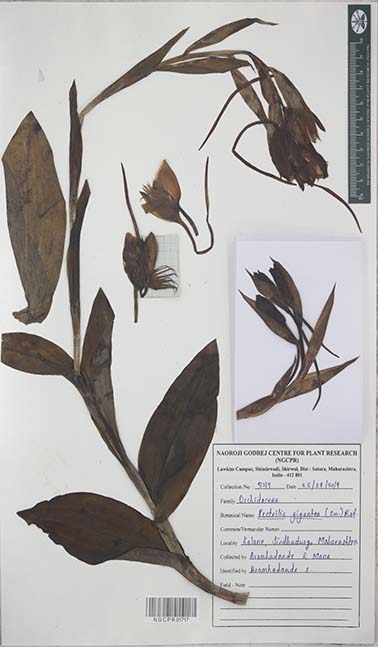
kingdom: Plantae
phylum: Tracheophyta
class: Liliopsida
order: Asparagales
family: Orchidaceae
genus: Pecteilis
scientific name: Pecteilis gigantea
